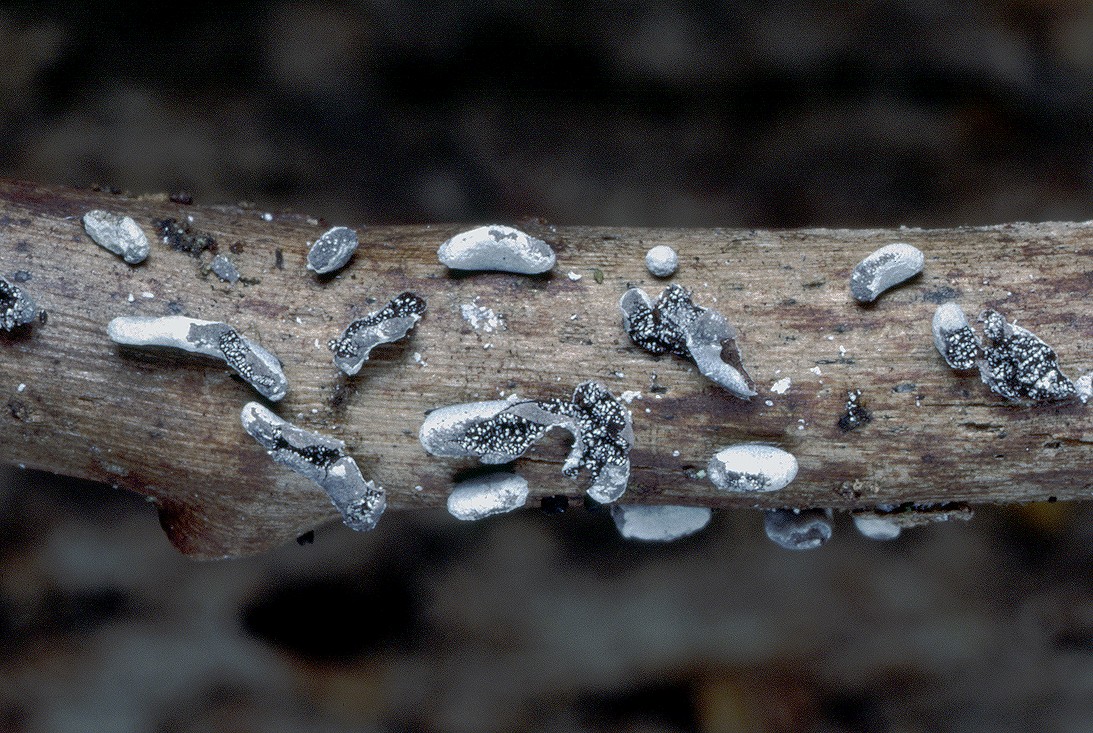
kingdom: Protozoa
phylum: Mycetozoa
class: Myxomycetes
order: Physarales
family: Physaraceae
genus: Physarum
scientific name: Physarum bivalve
